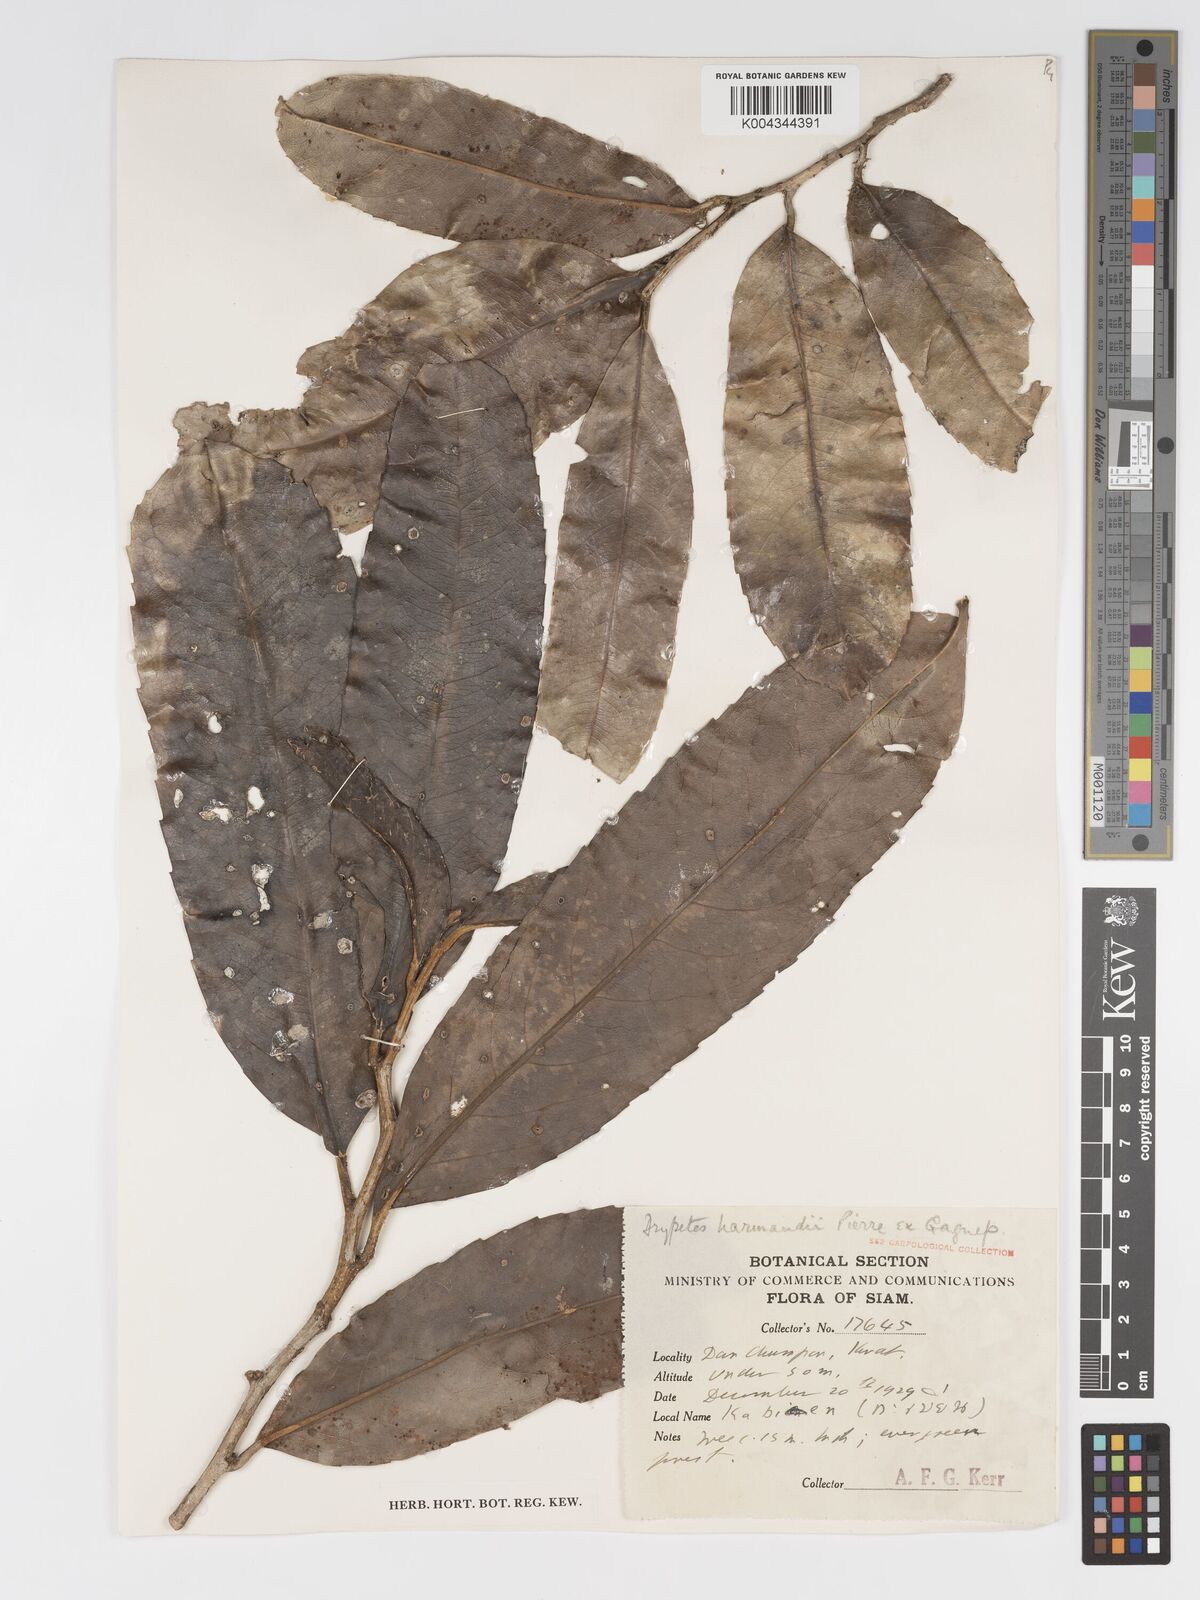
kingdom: Plantae
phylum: Tracheophyta
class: Magnoliopsida
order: Malpighiales
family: Putranjivaceae
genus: Drypetes
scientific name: Drypetes harmandii
